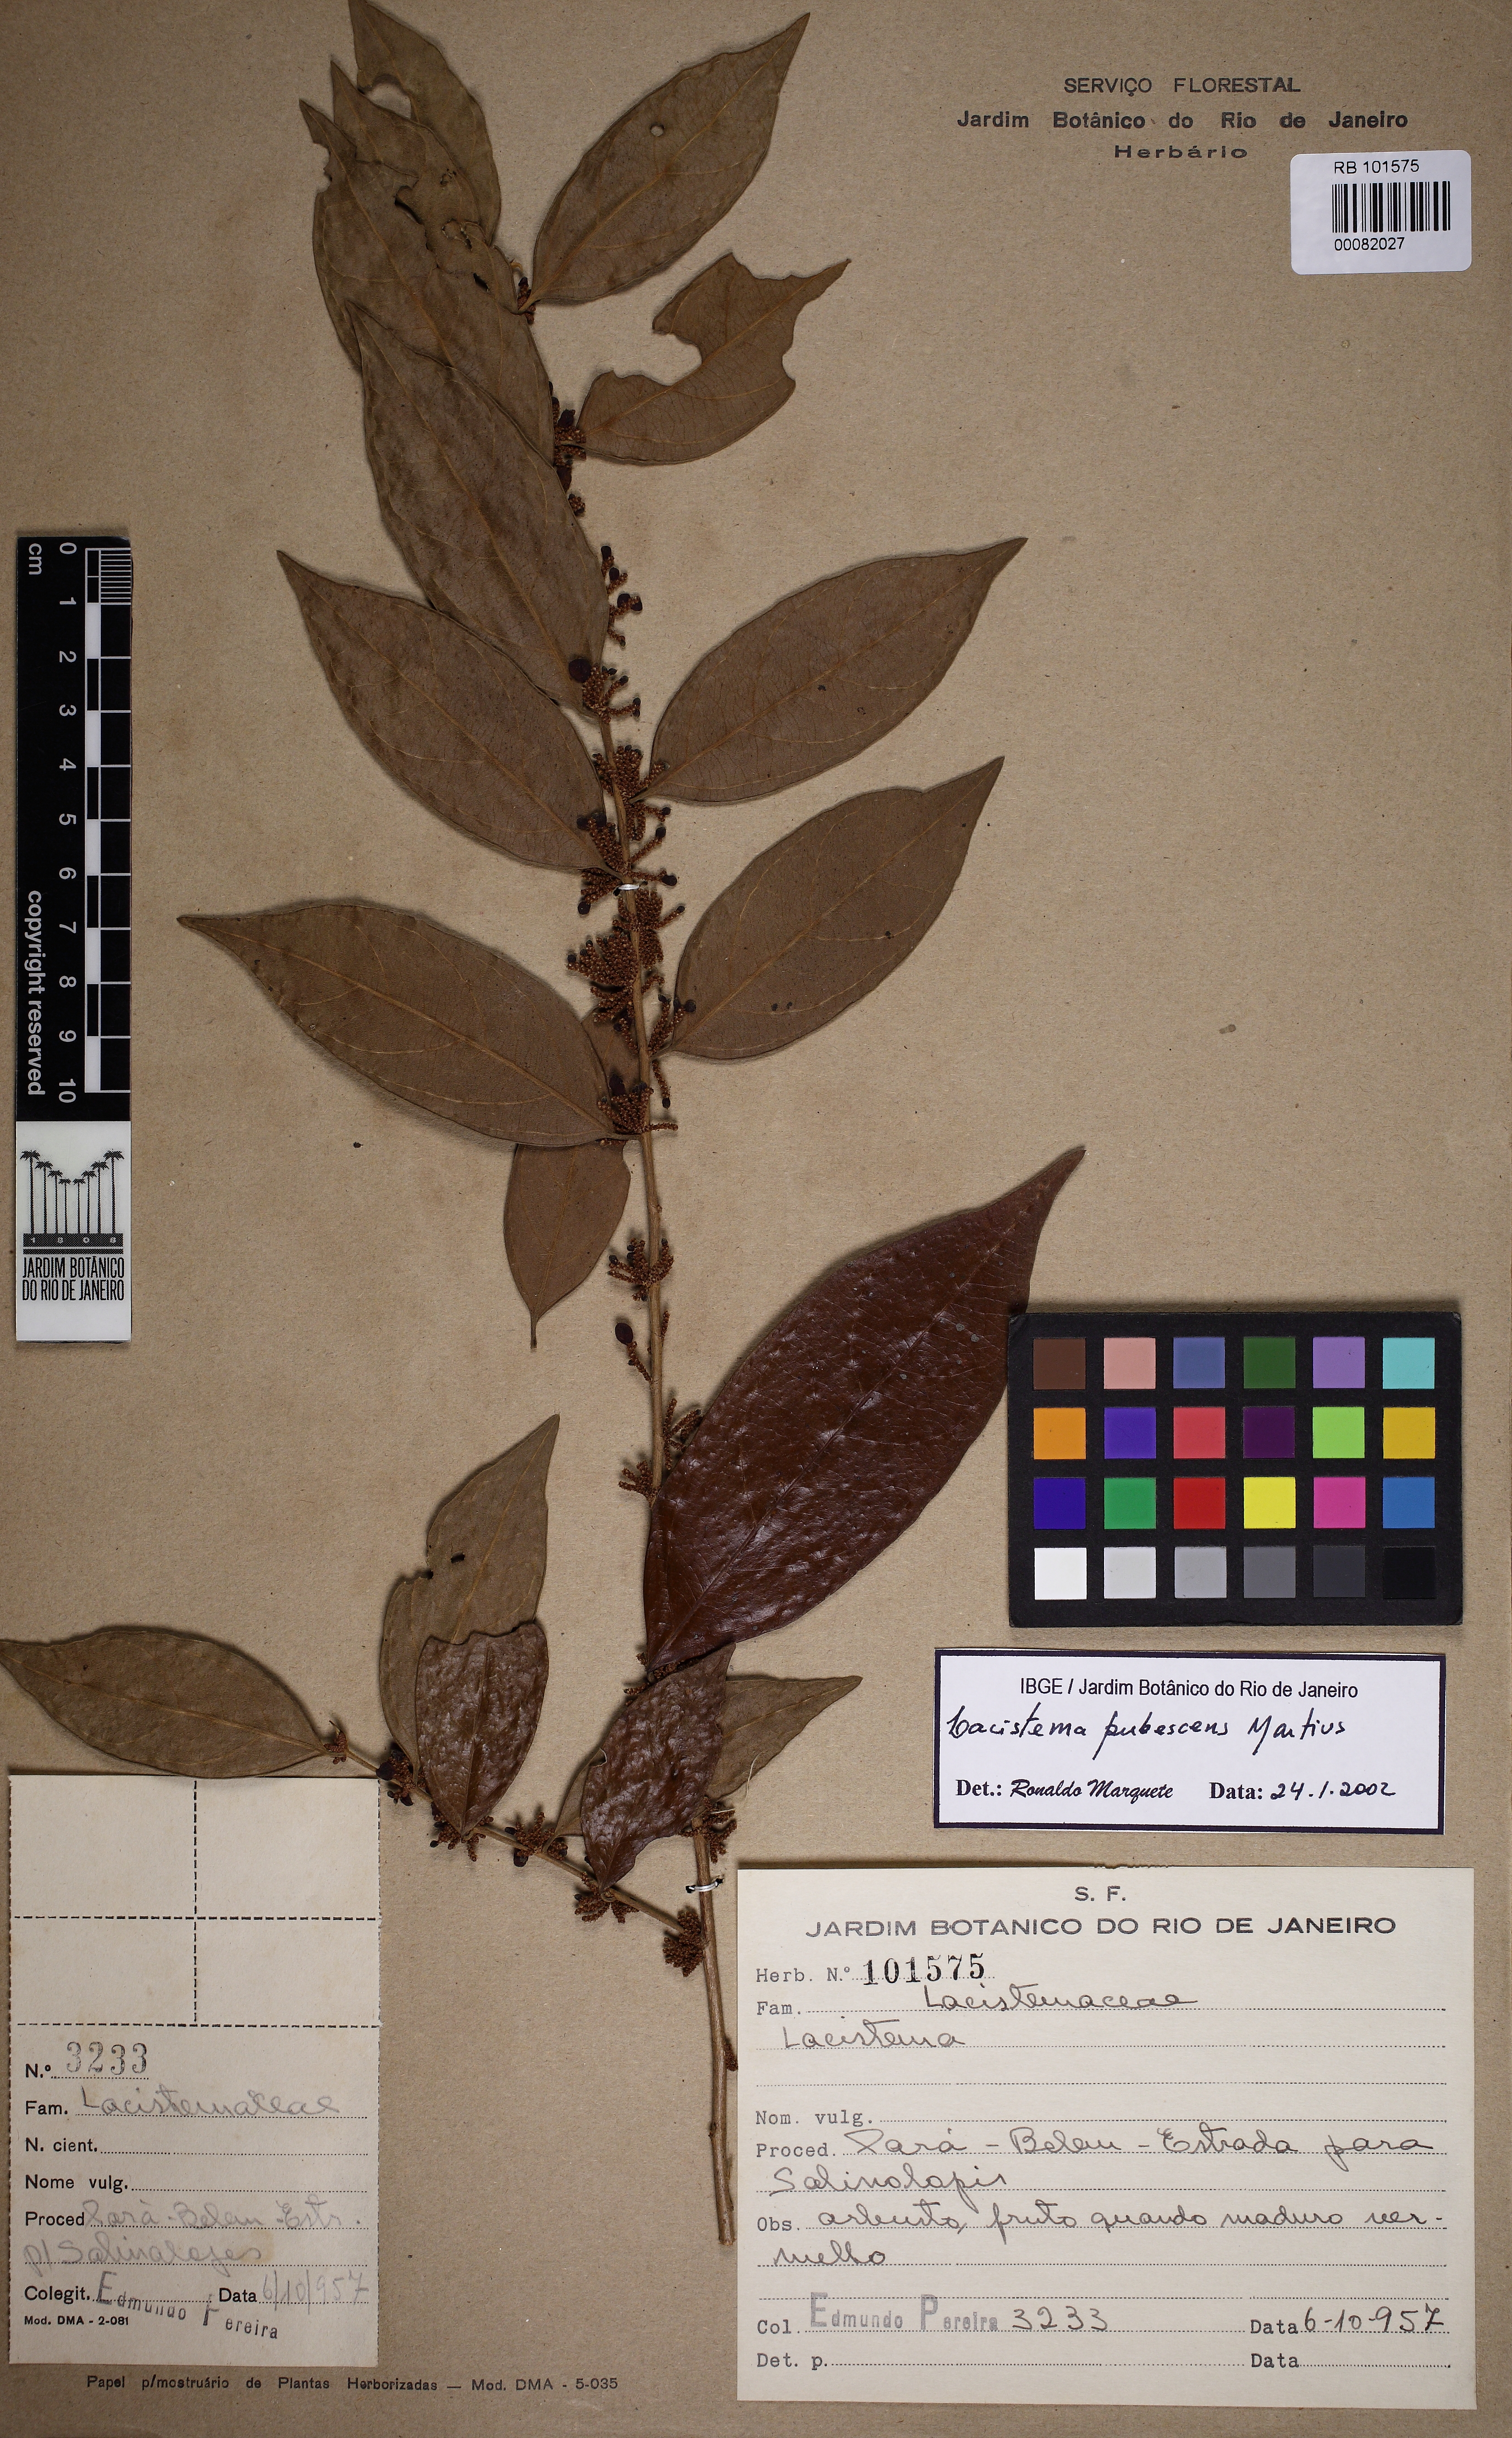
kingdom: Plantae
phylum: Tracheophyta
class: Magnoliopsida
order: Malpighiales
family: Lacistemataceae
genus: Lacistema
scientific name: Lacistema pubescens
